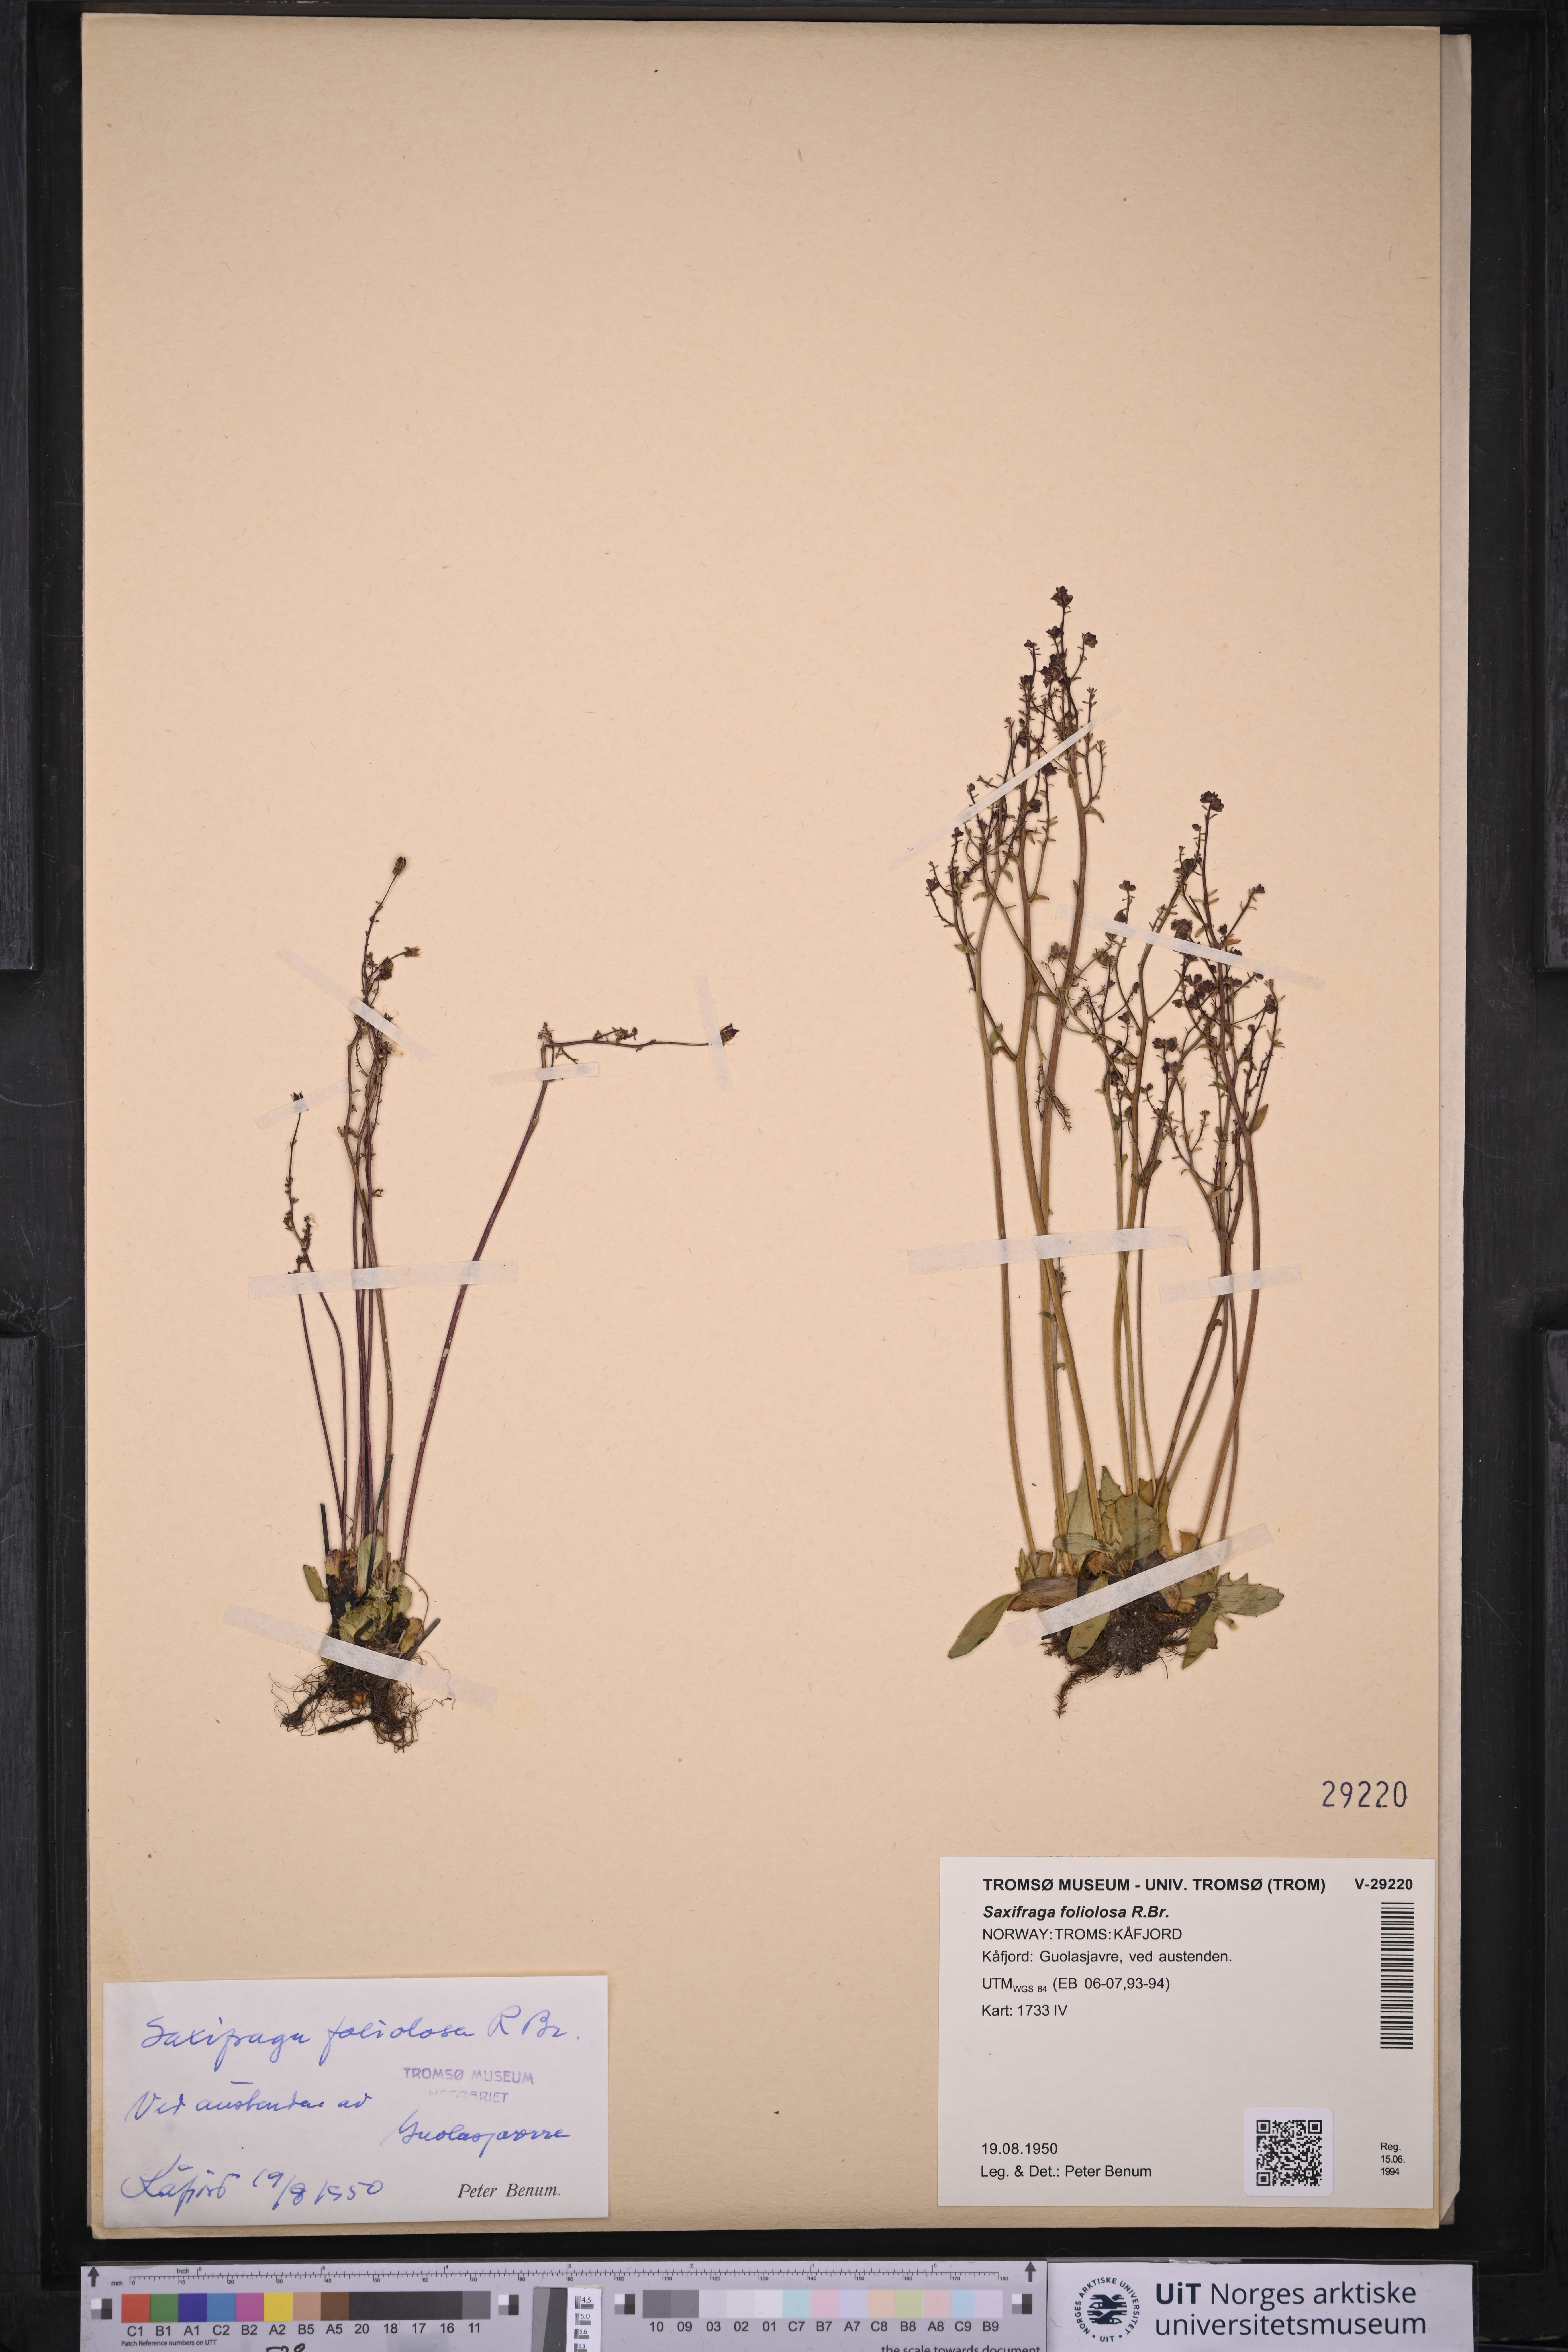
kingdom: Plantae
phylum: Tracheophyta
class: Magnoliopsida
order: Saxifragales
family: Saxifragaceae
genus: Micranthes
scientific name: Micranthes foliolosa
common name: Leafystem saxifrage
